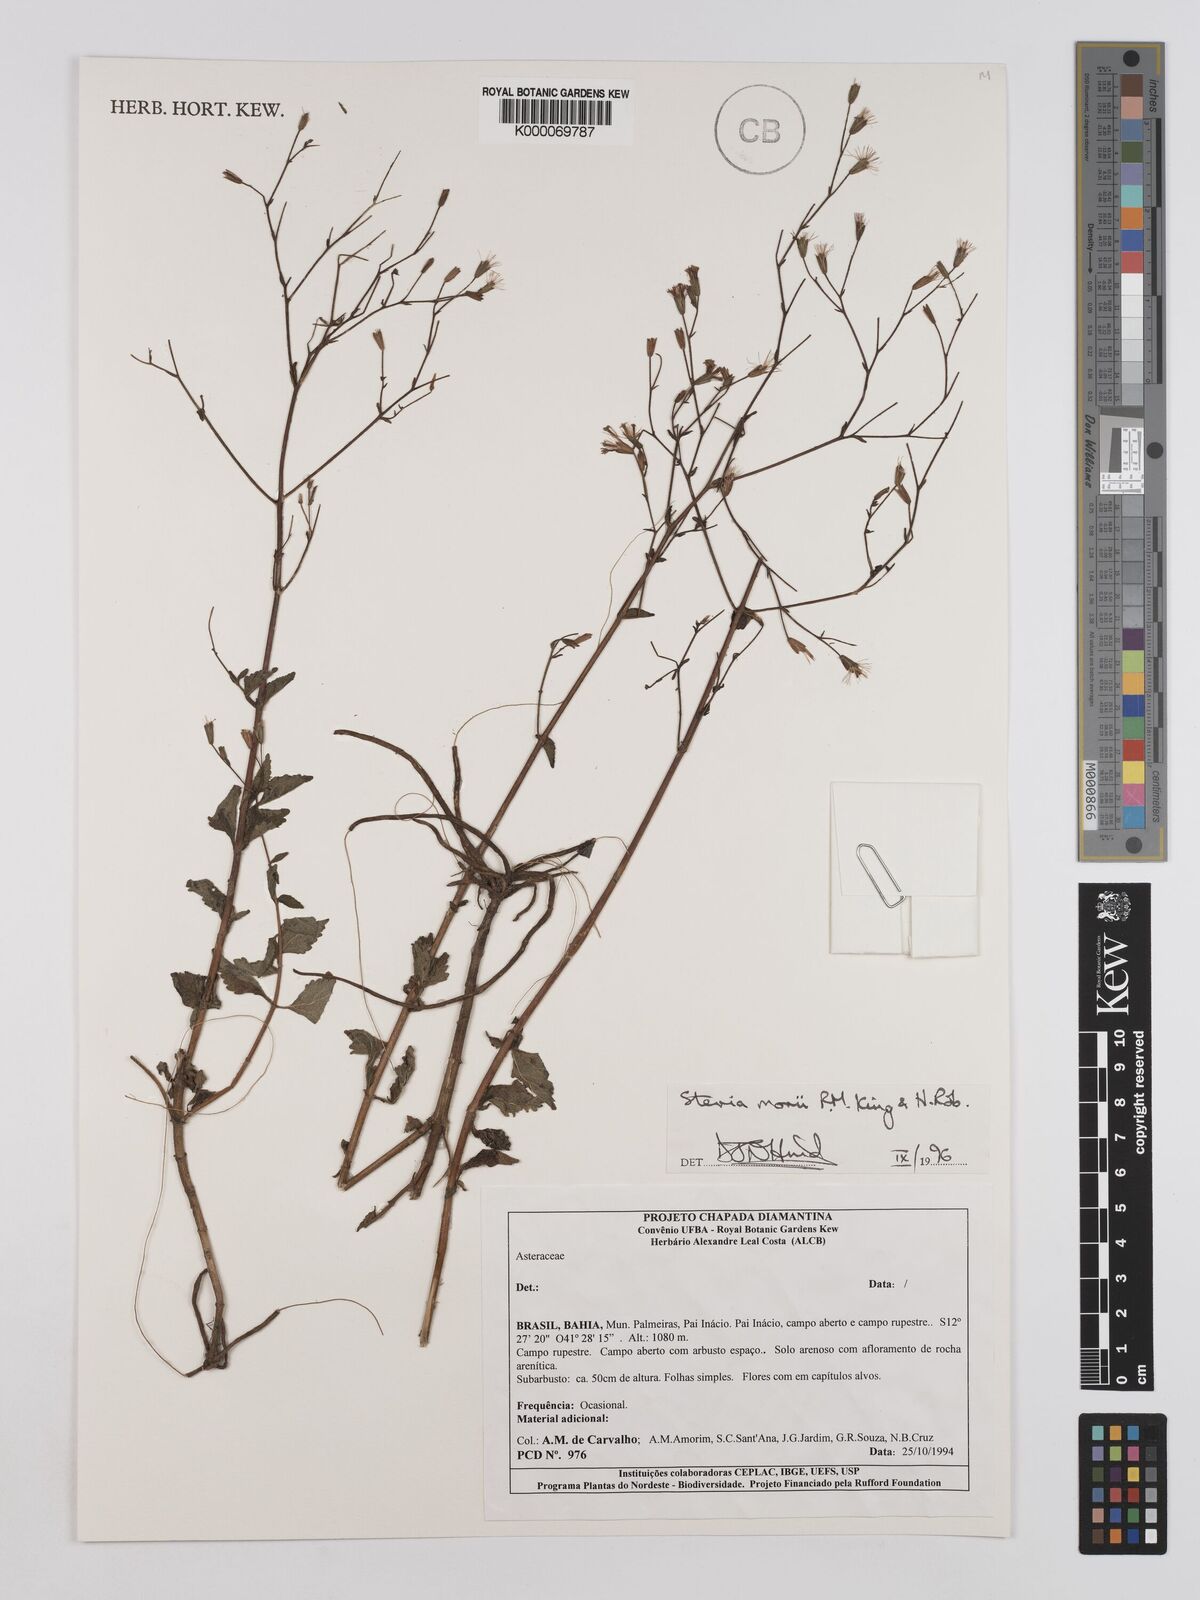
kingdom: Plantae
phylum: Tracheophyta
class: Magnoliopsida
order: Asterales
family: Asteraceae
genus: Stevia
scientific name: Stevia morii
